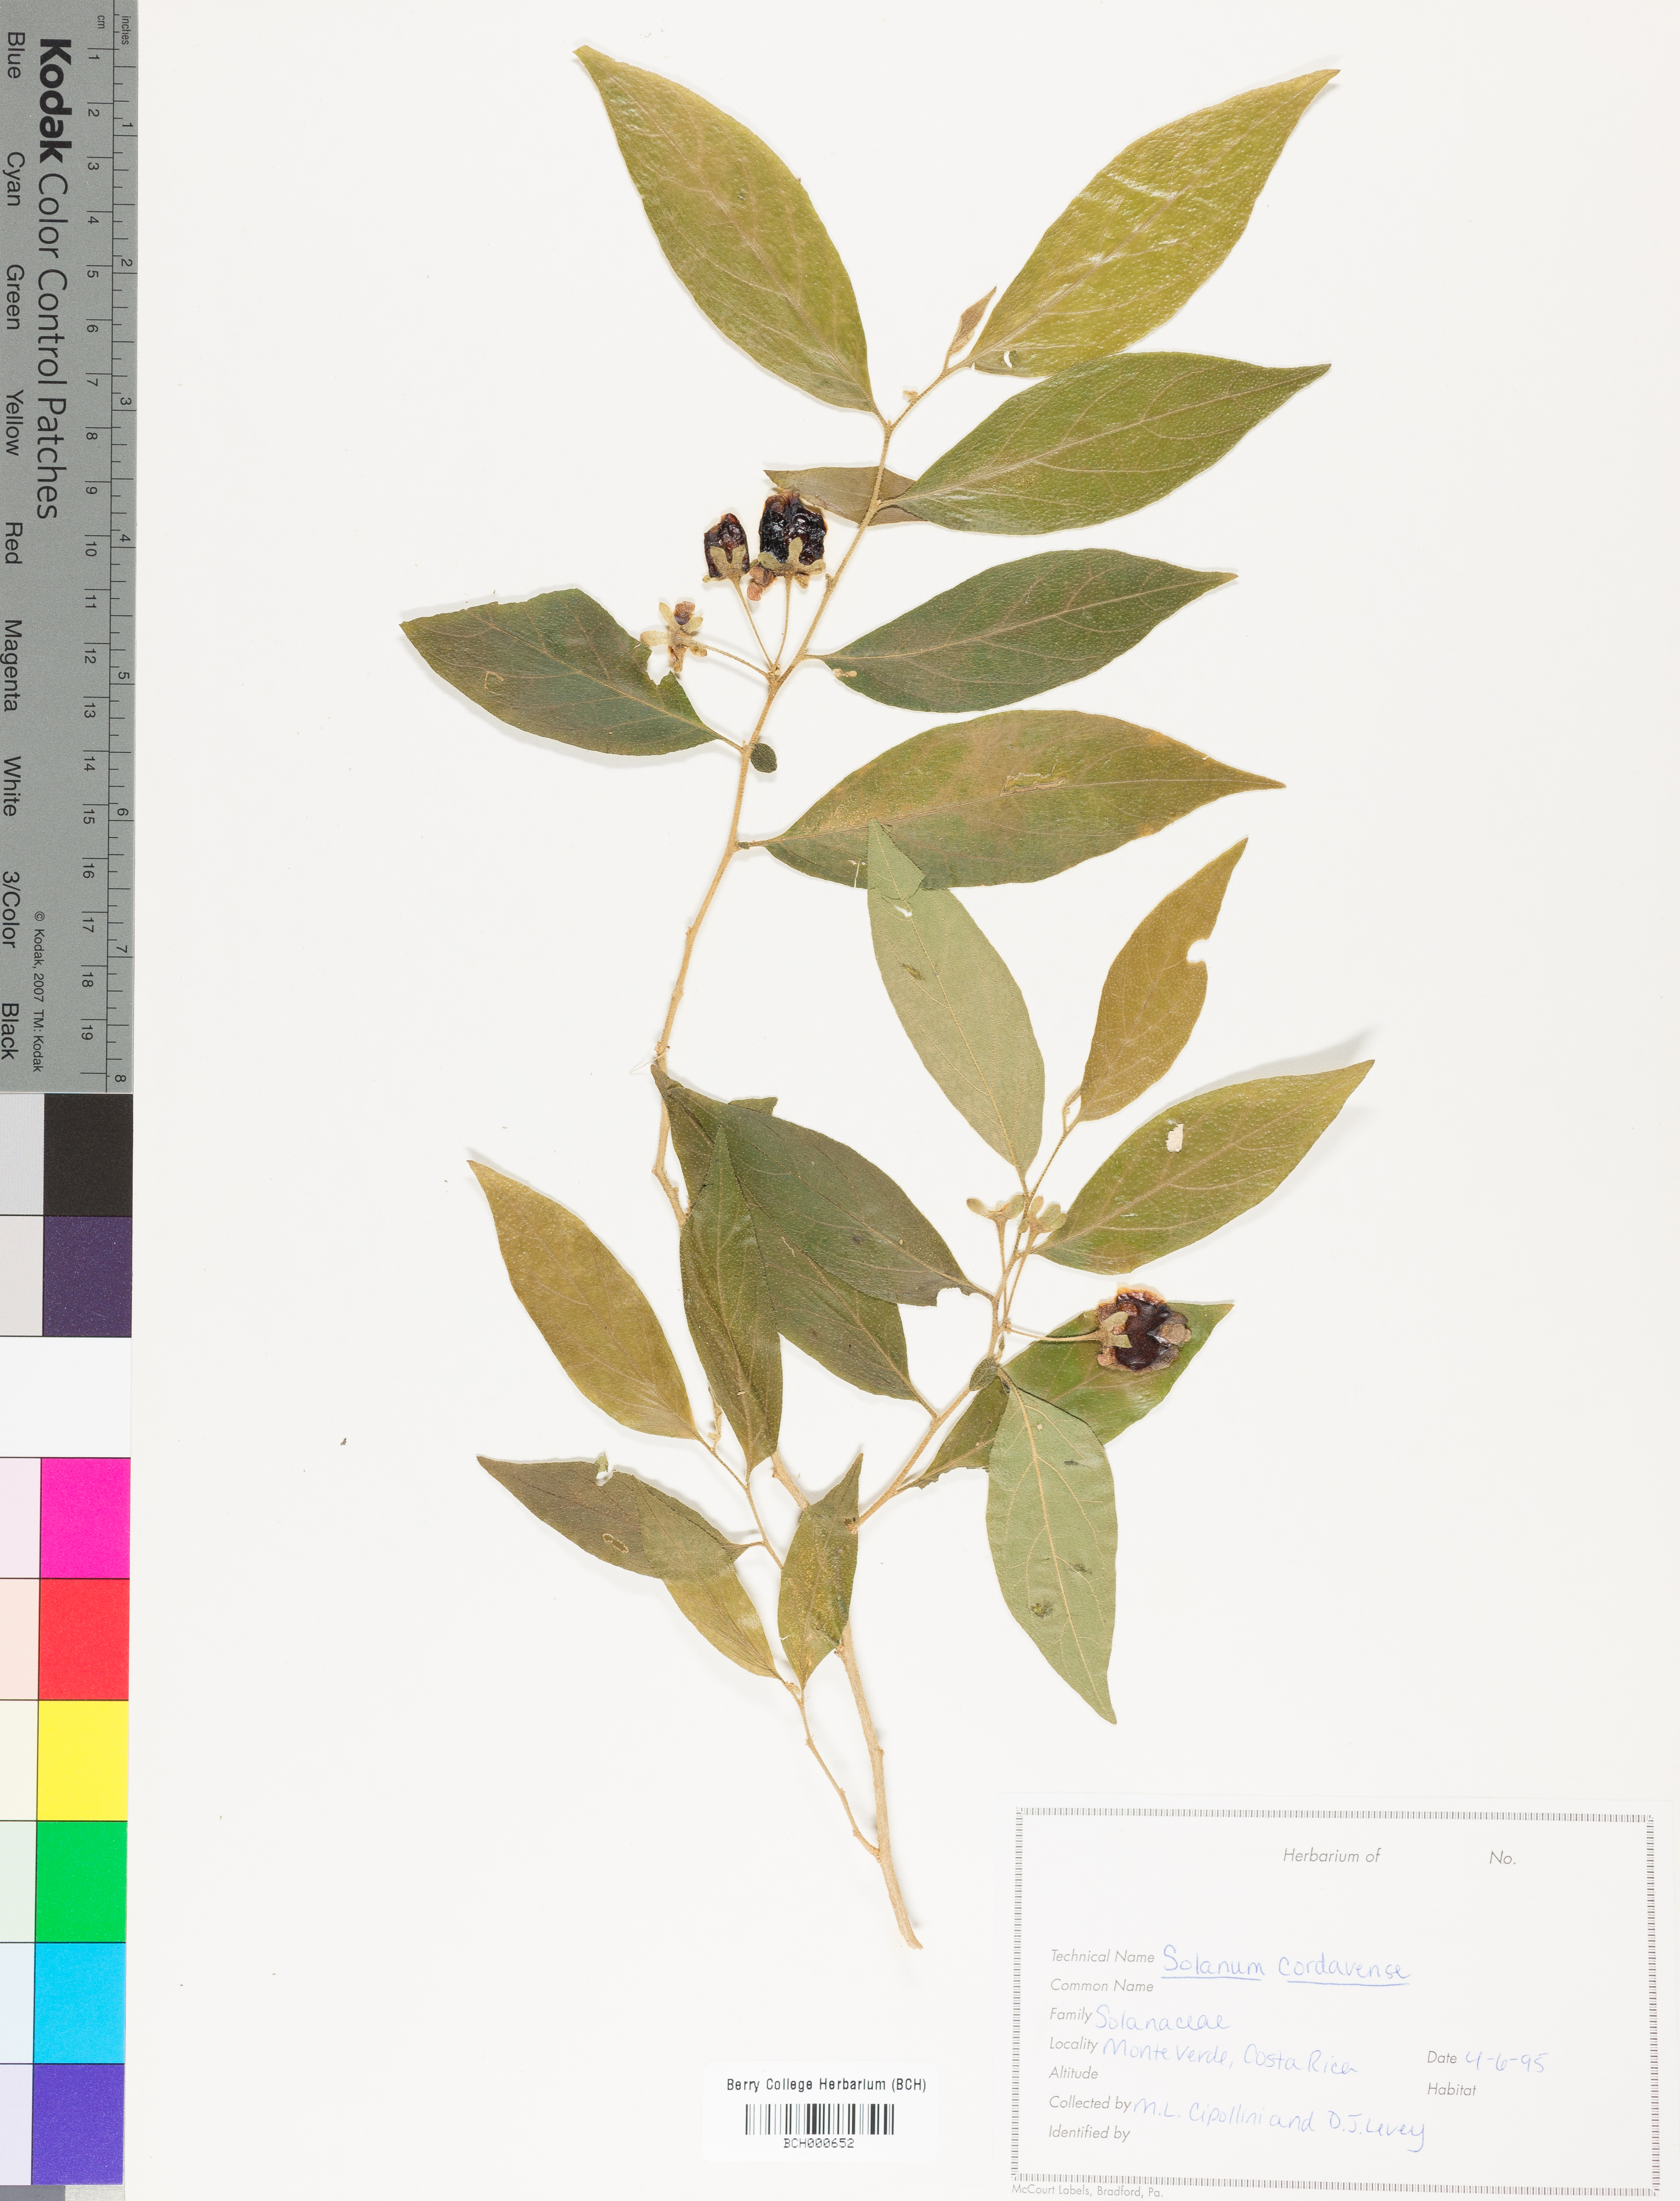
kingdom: Plantae
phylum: Tracheophyta
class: Magnoliopsida
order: Solanales
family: Solanaceae
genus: Solanum
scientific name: Solanum cordovense
